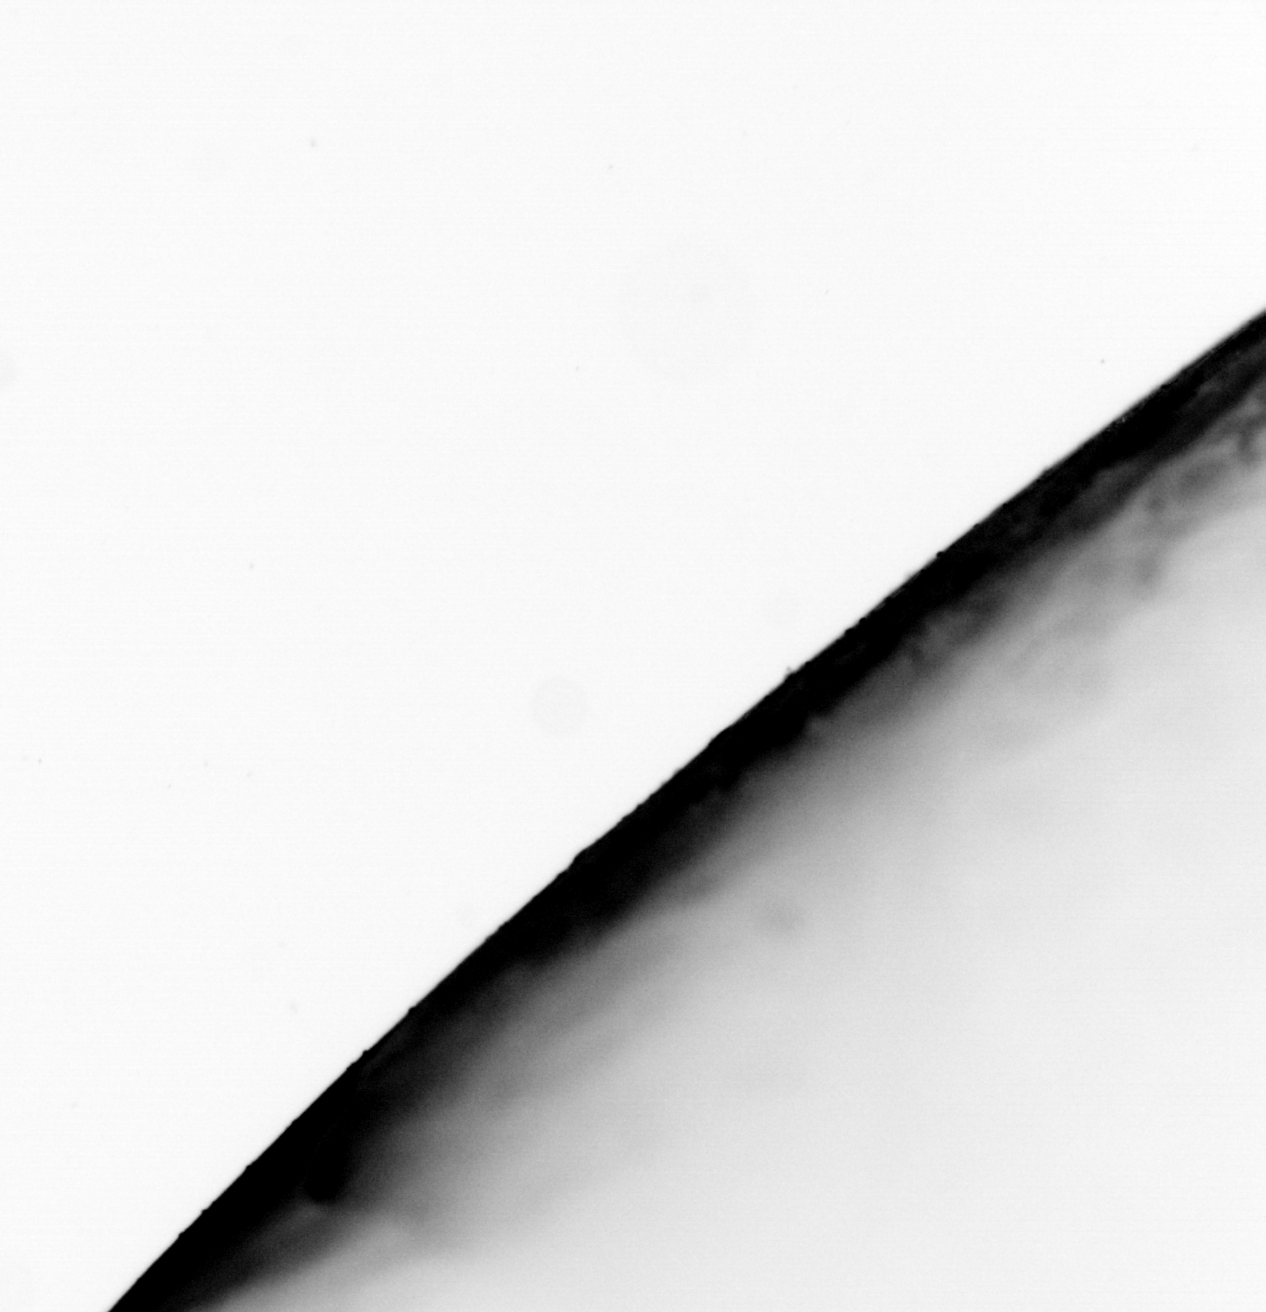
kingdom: Animalia
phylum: Chordata
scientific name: Chordata
